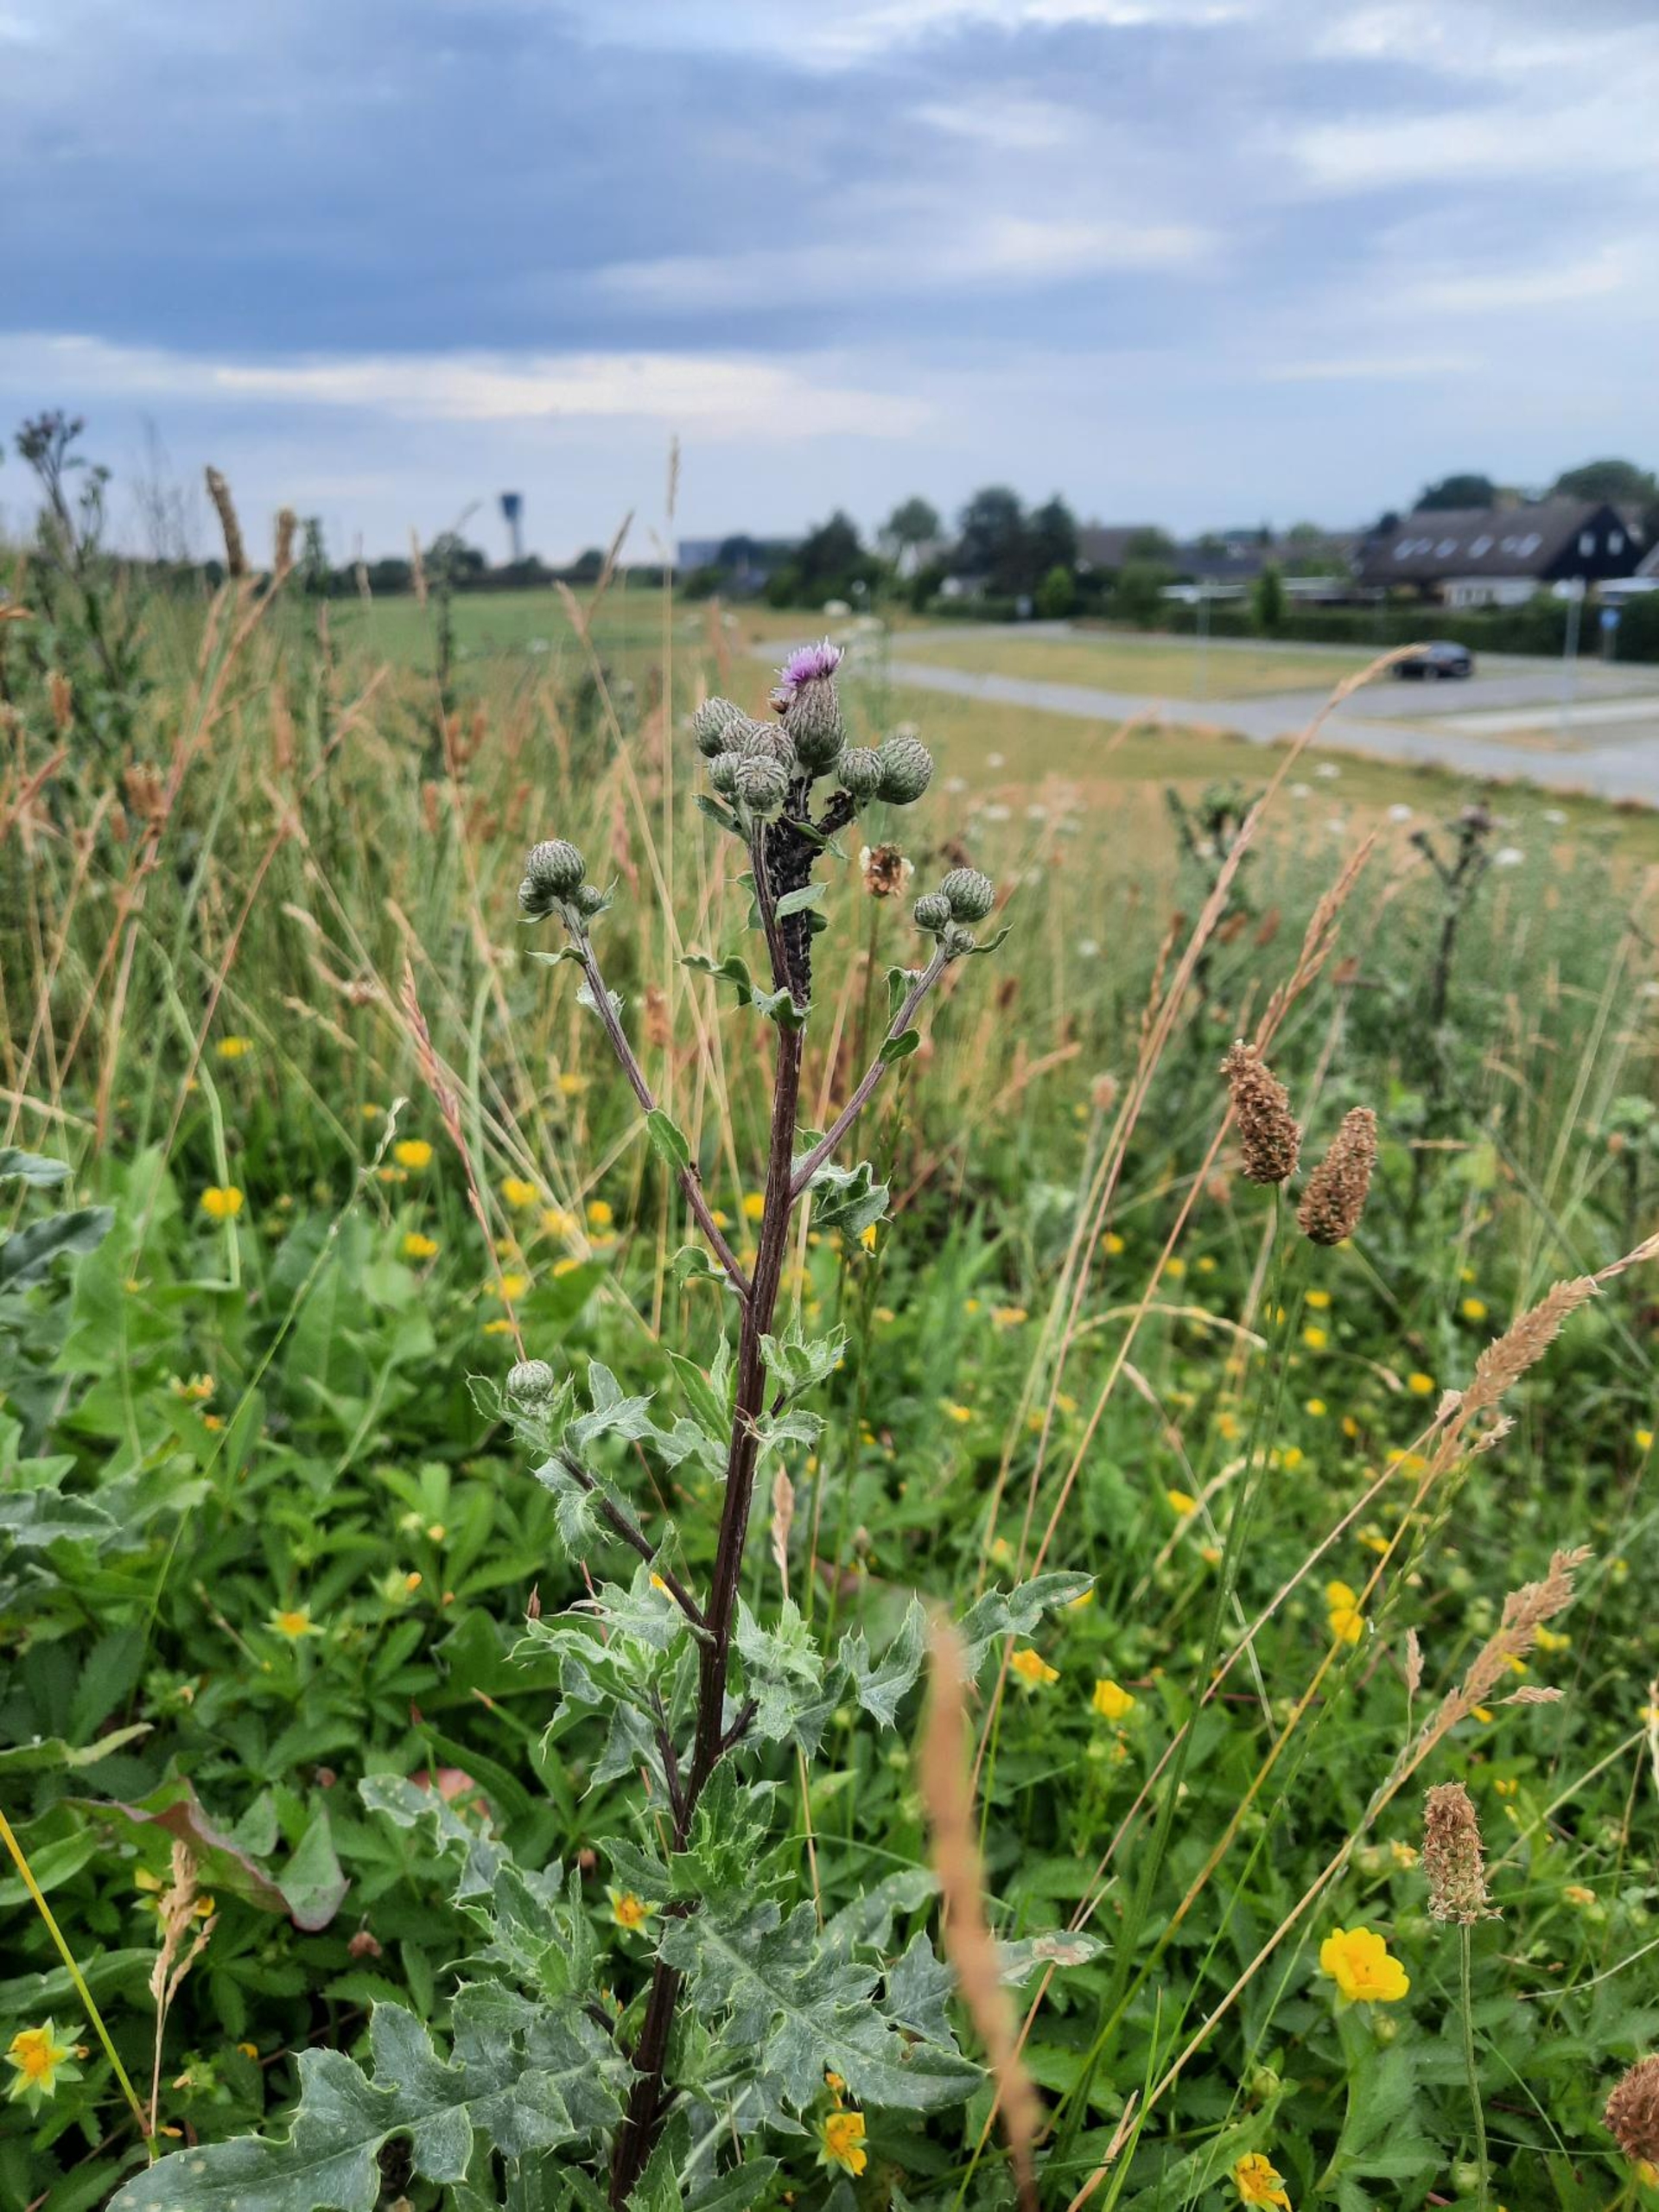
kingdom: Plantae
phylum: Tracheophyta
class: Magnoliopsida
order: Asterales
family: Asteraceae
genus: Cirsium
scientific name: Cirsium arvense
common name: Ager-tidsel
